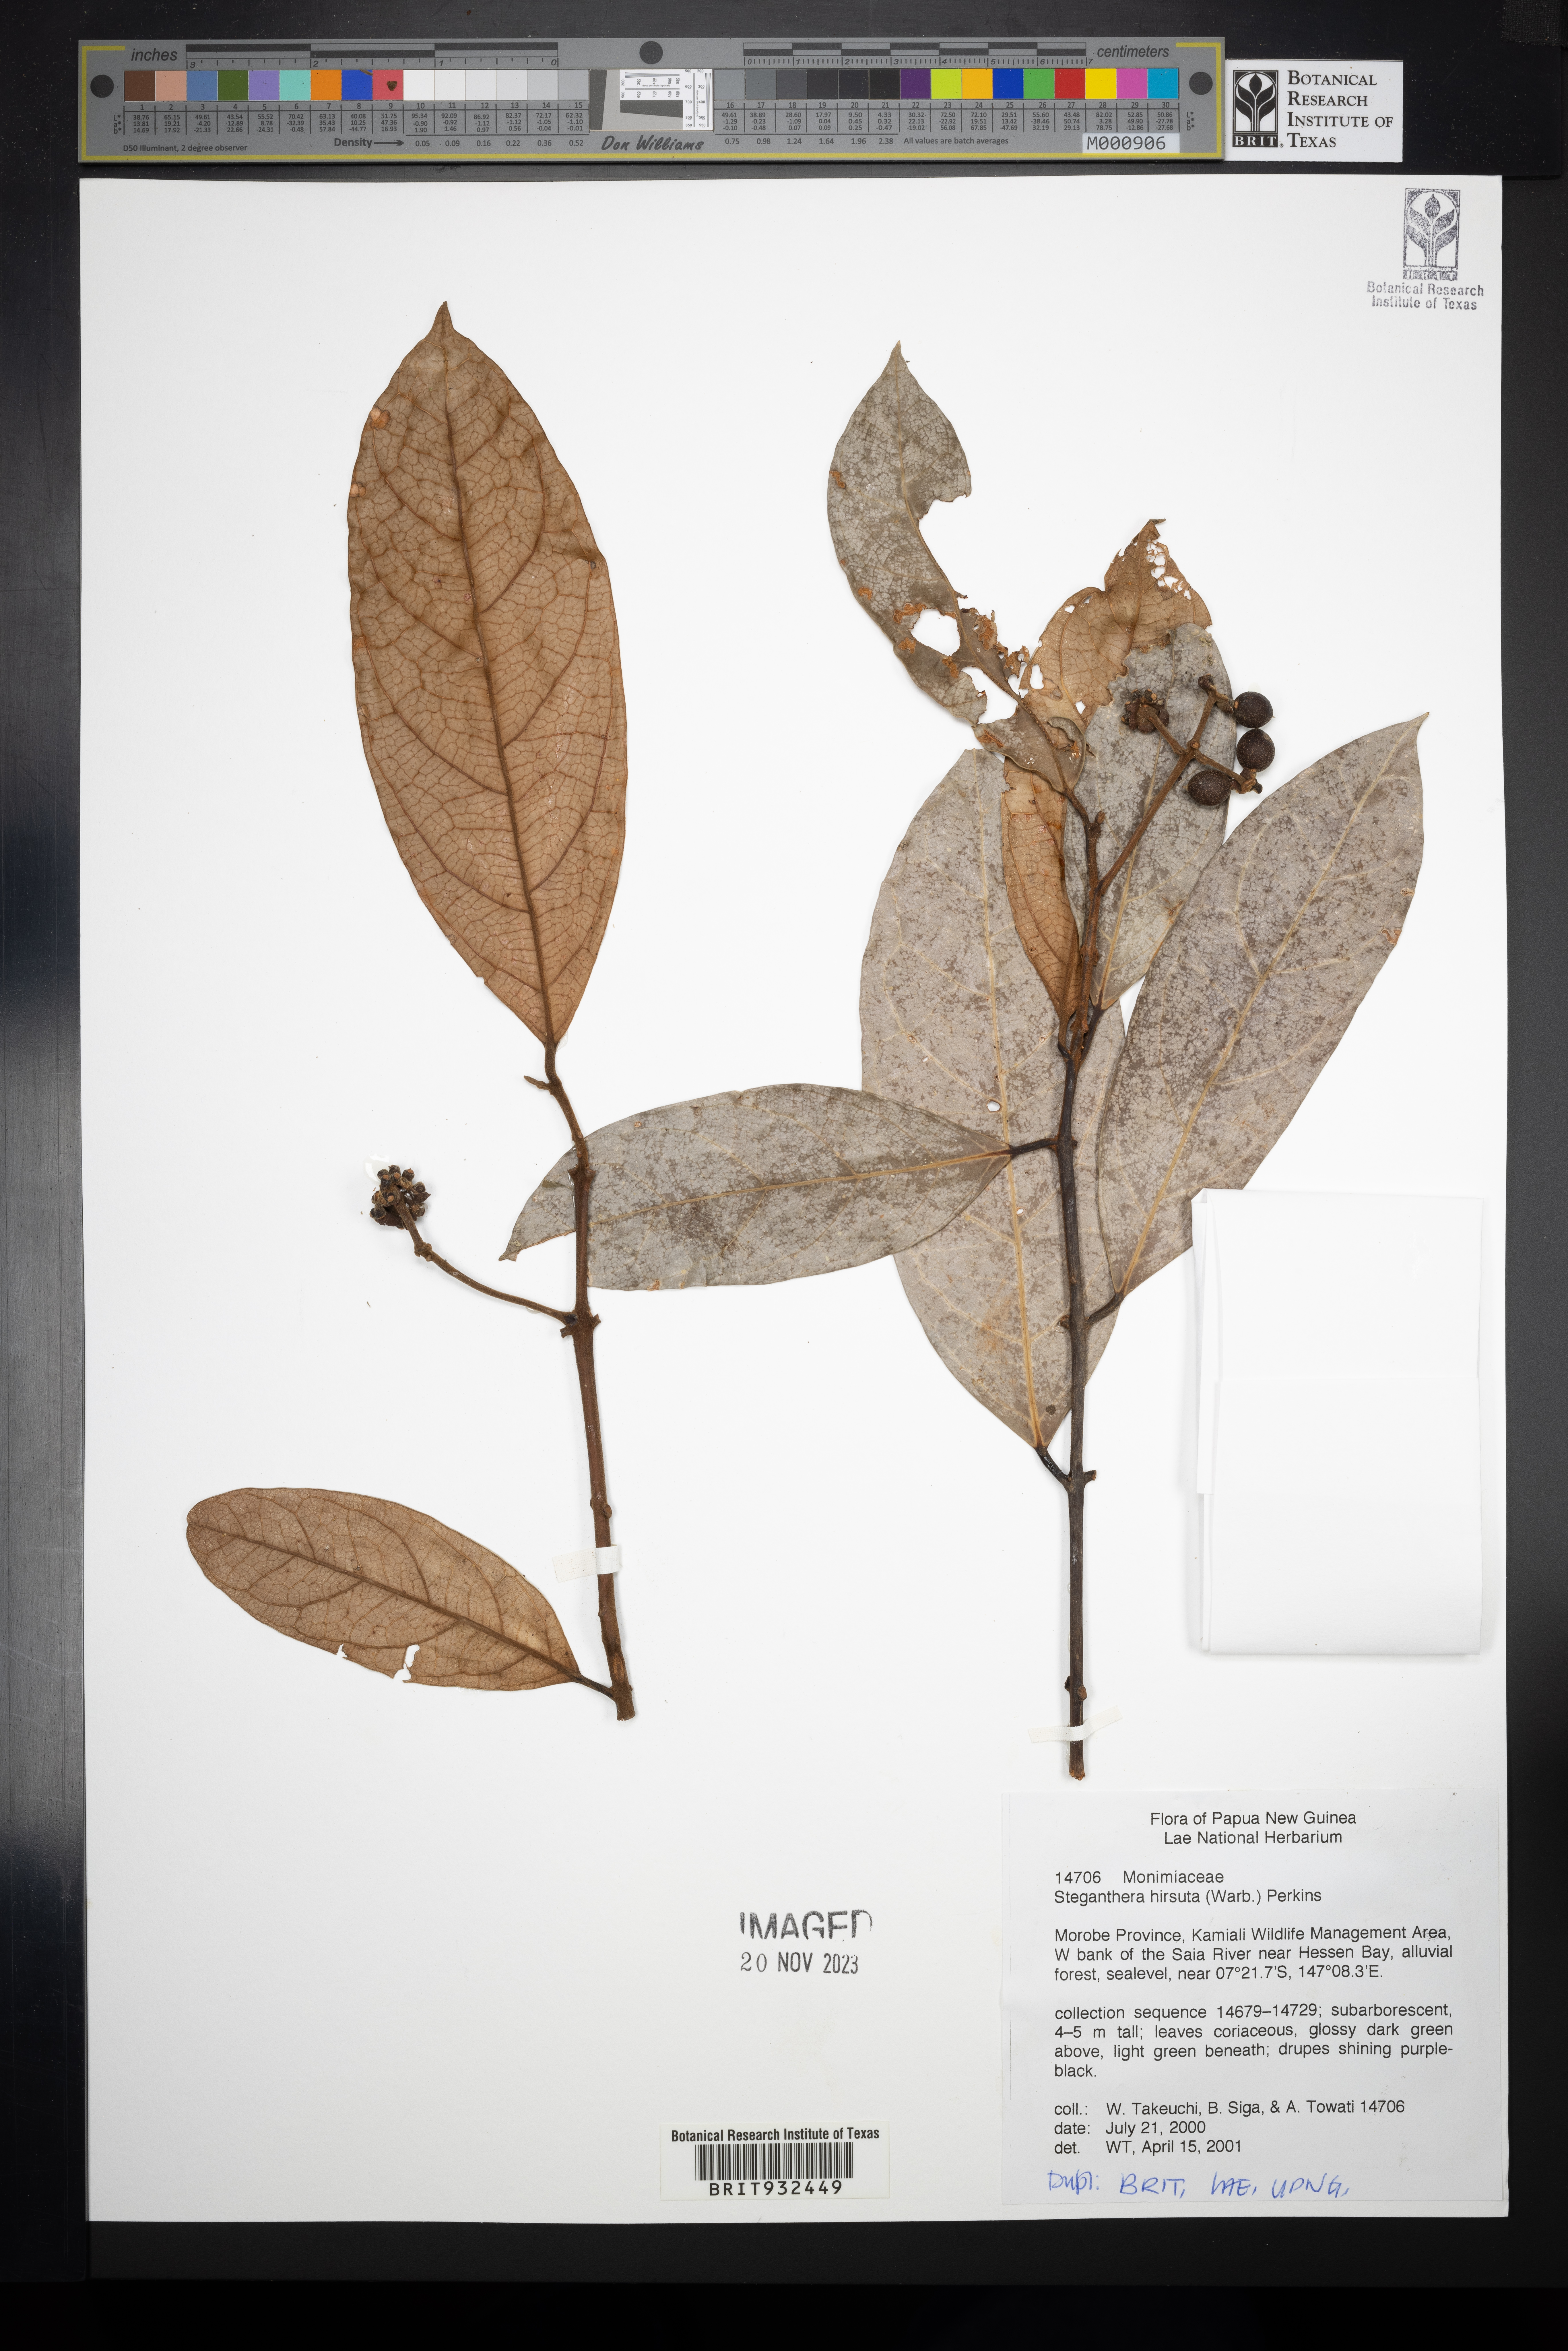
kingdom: Plantae
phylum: Tracheophyta
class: Magnoliopsida
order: Laurales
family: Monimiaceae
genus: Steganthera
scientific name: Steganthera
